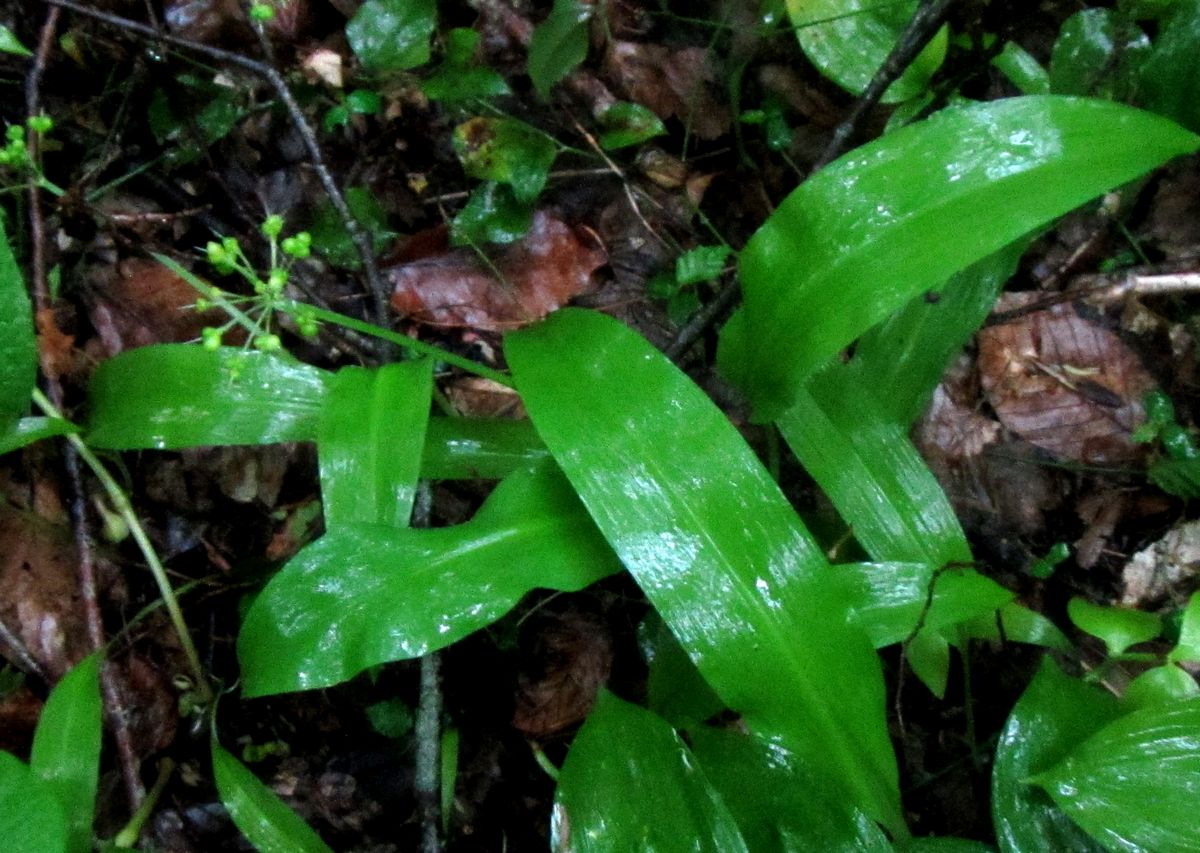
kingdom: Plantae
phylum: Tracheophyta
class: Liliopsida
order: Asparagales
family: Amaryllidaceae
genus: Allium
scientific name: Allium ursinum
